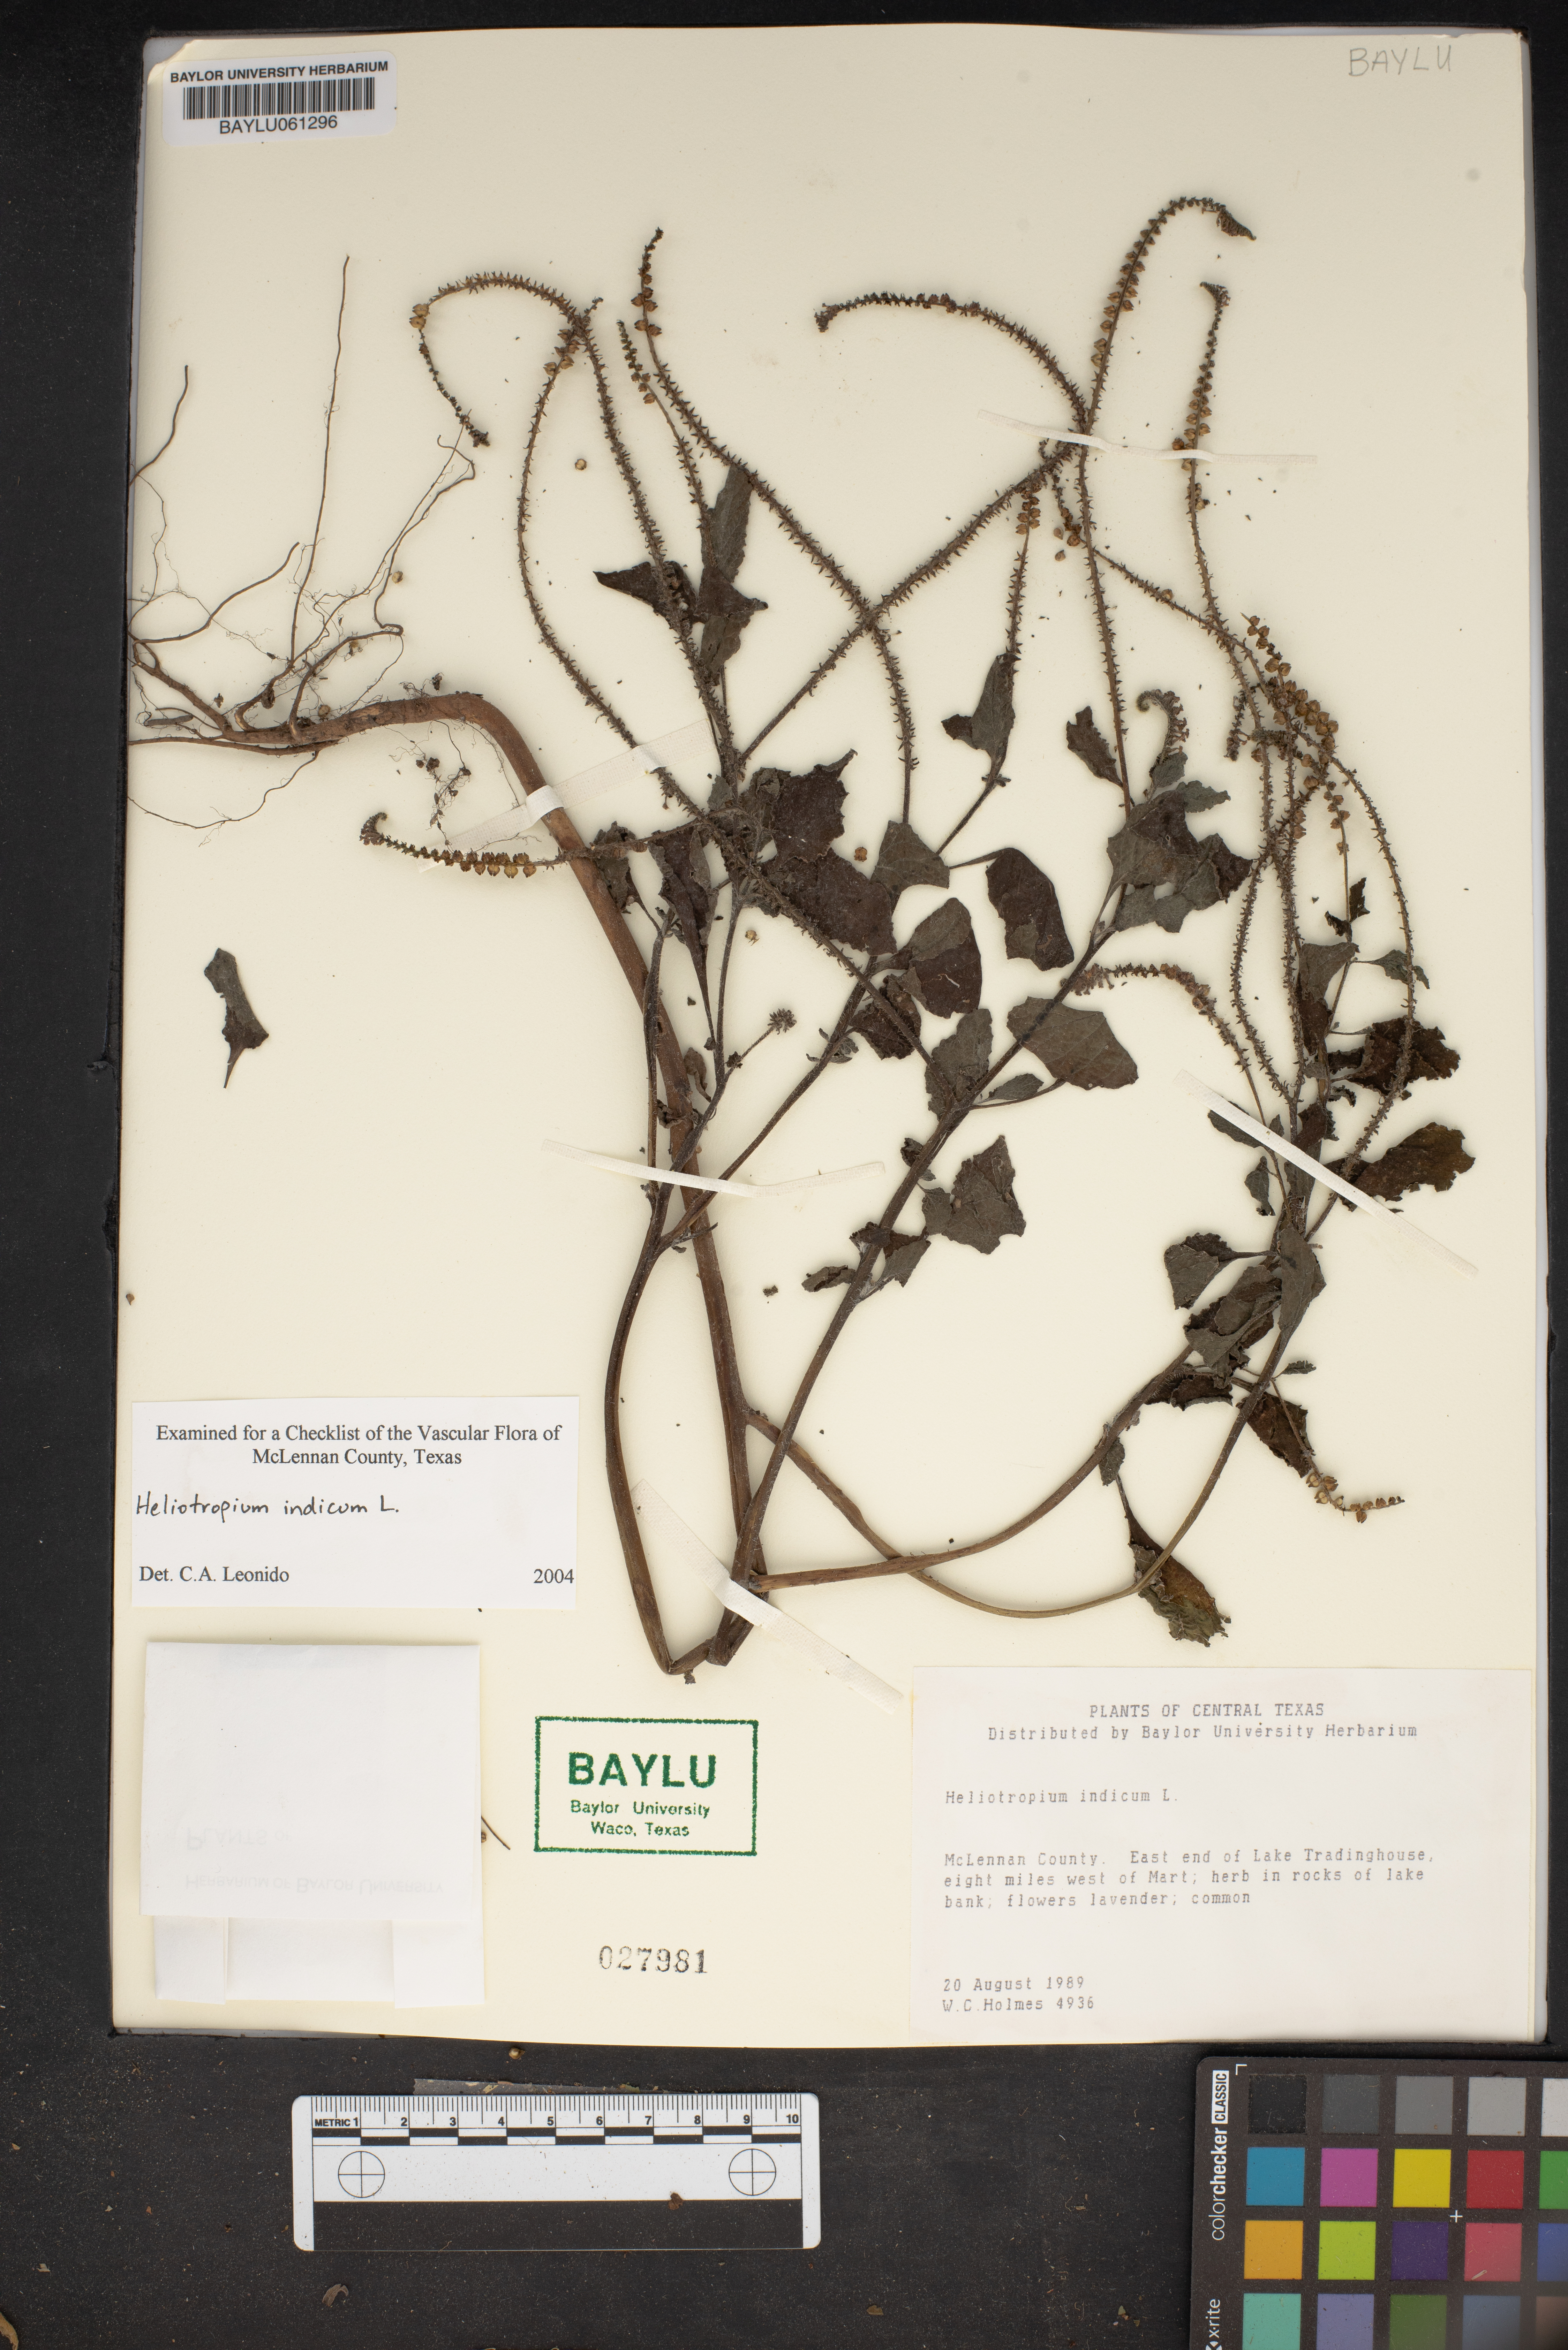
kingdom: Plantae
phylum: Tracheophyta
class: Magnoliopsida
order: Boraginales
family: Heliotropiaceae
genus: Heliotropium
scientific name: Heliotropium indicum
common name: Indian heliotrope
